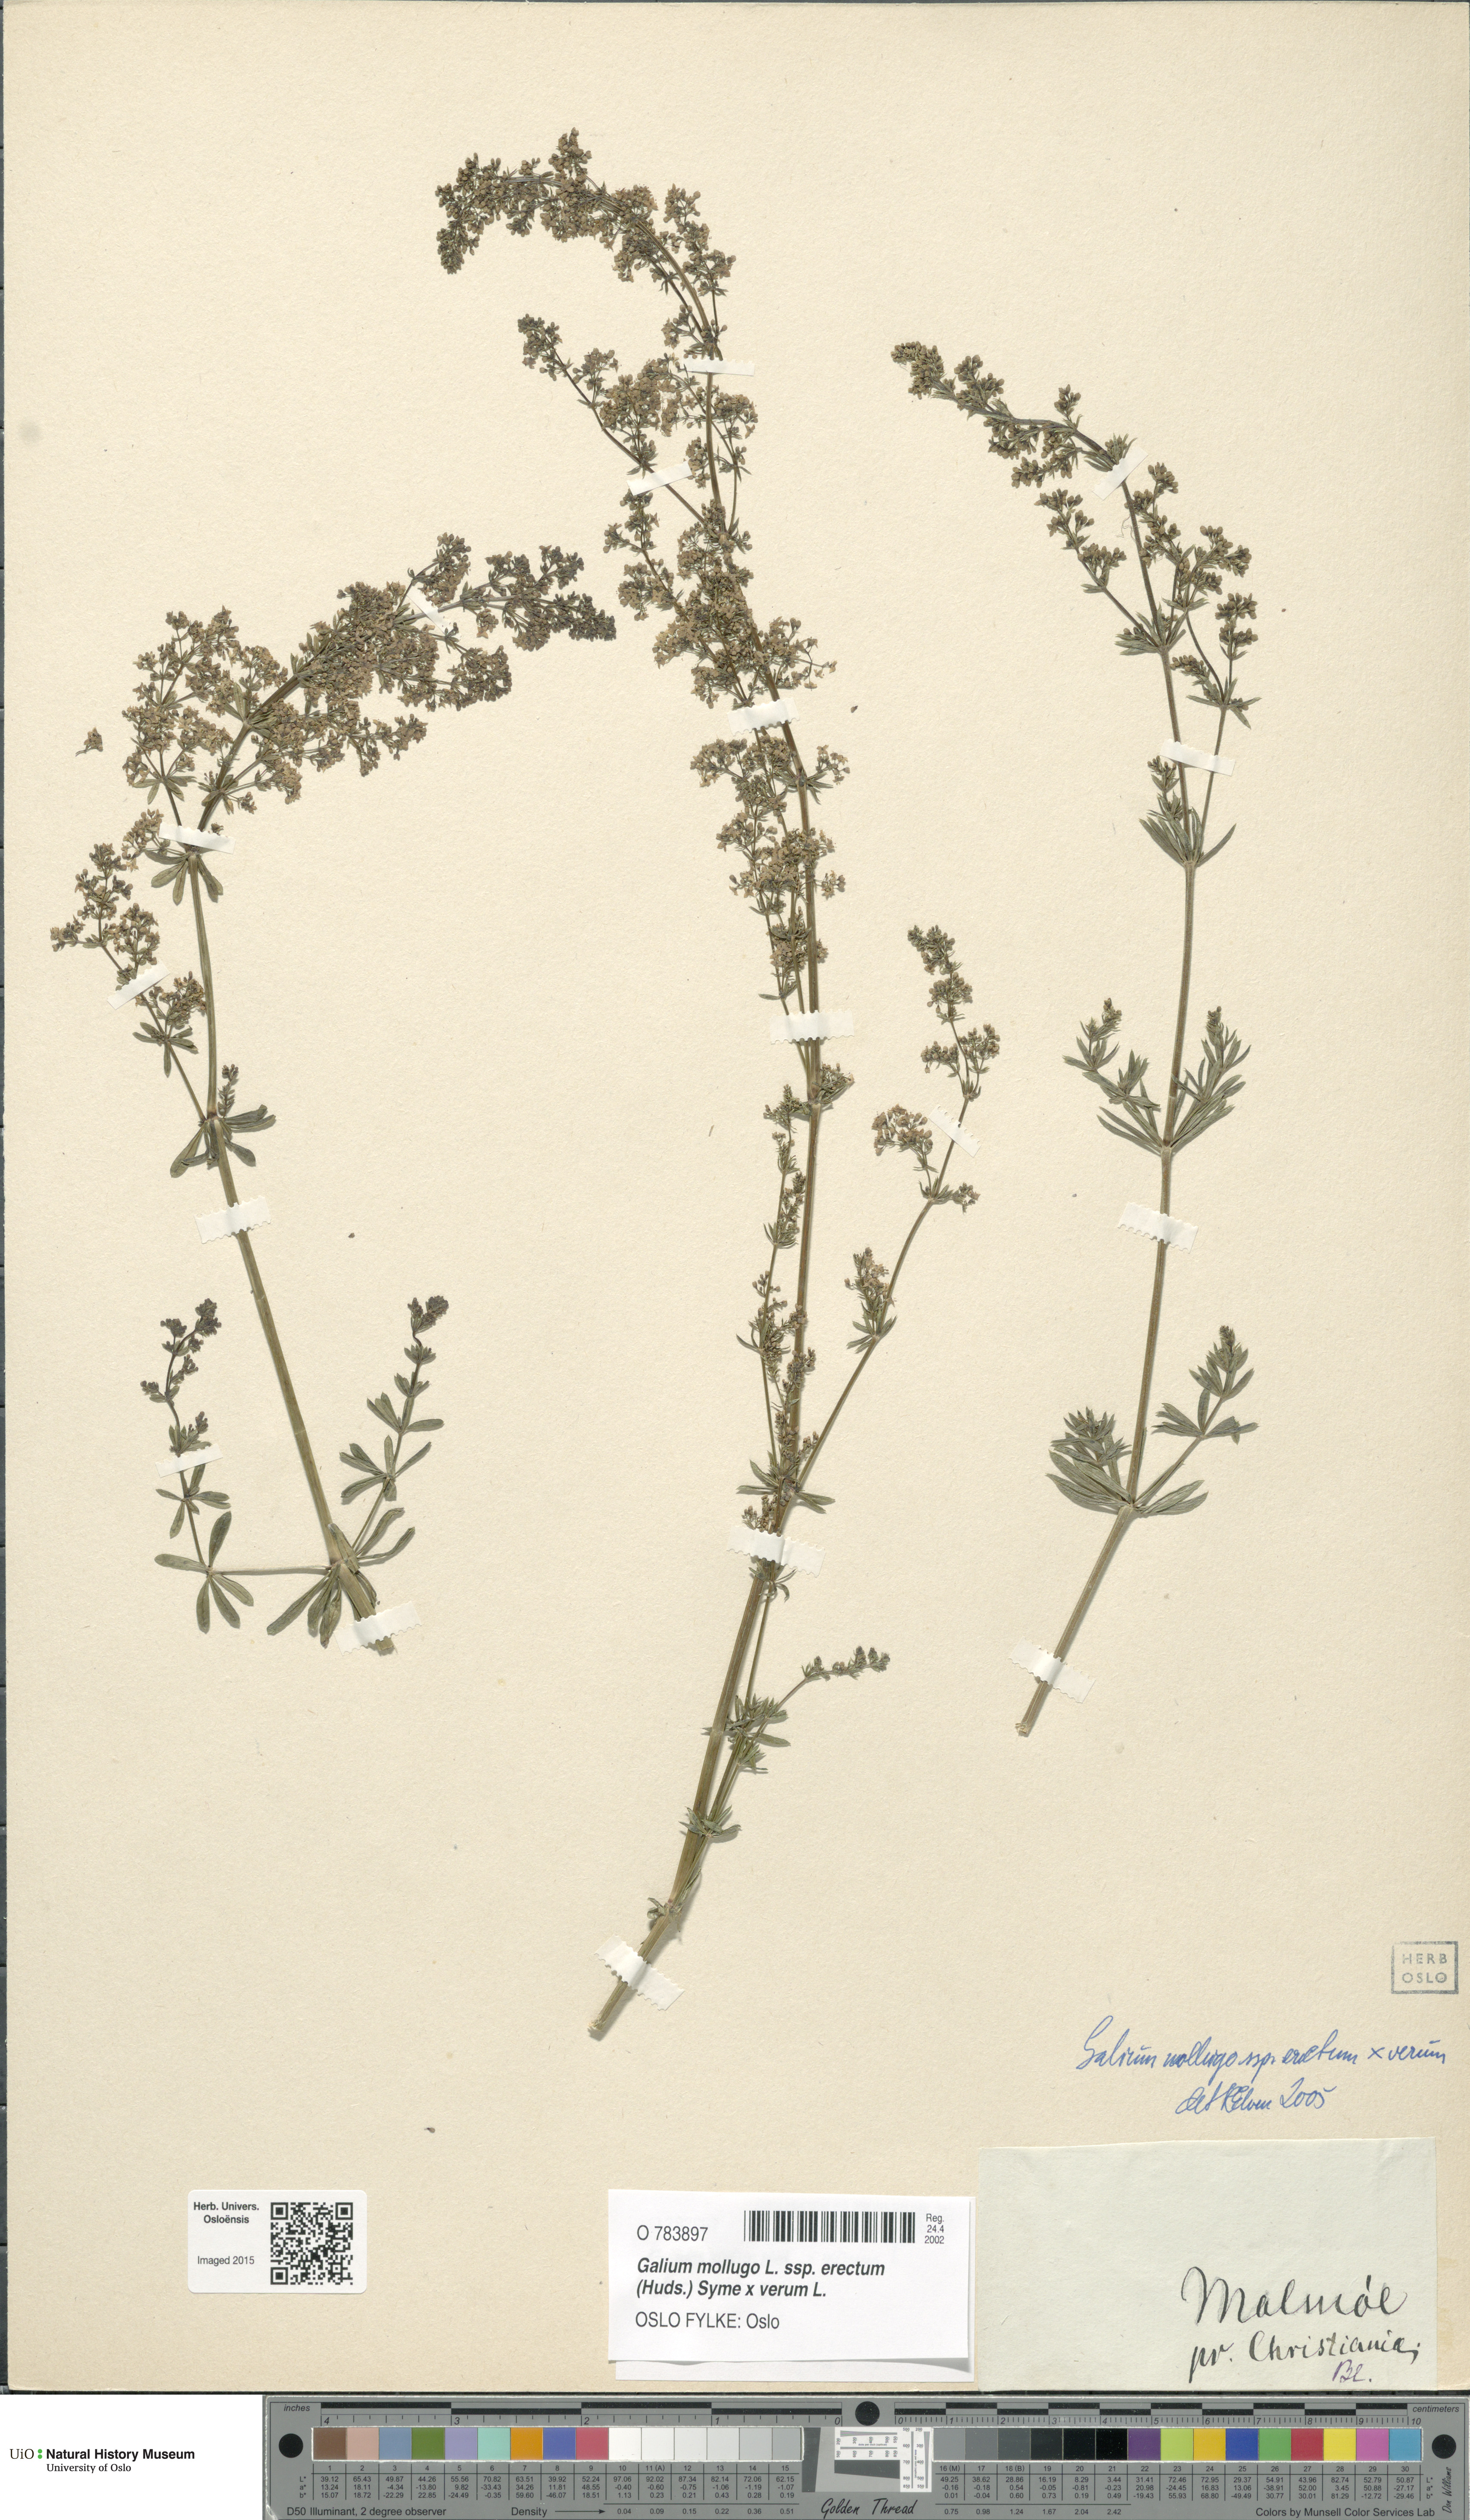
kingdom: Plantae
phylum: Tracheophyta
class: Magnoliopsida
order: Gentianales
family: Rubiaceae
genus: Galium
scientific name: Galium
